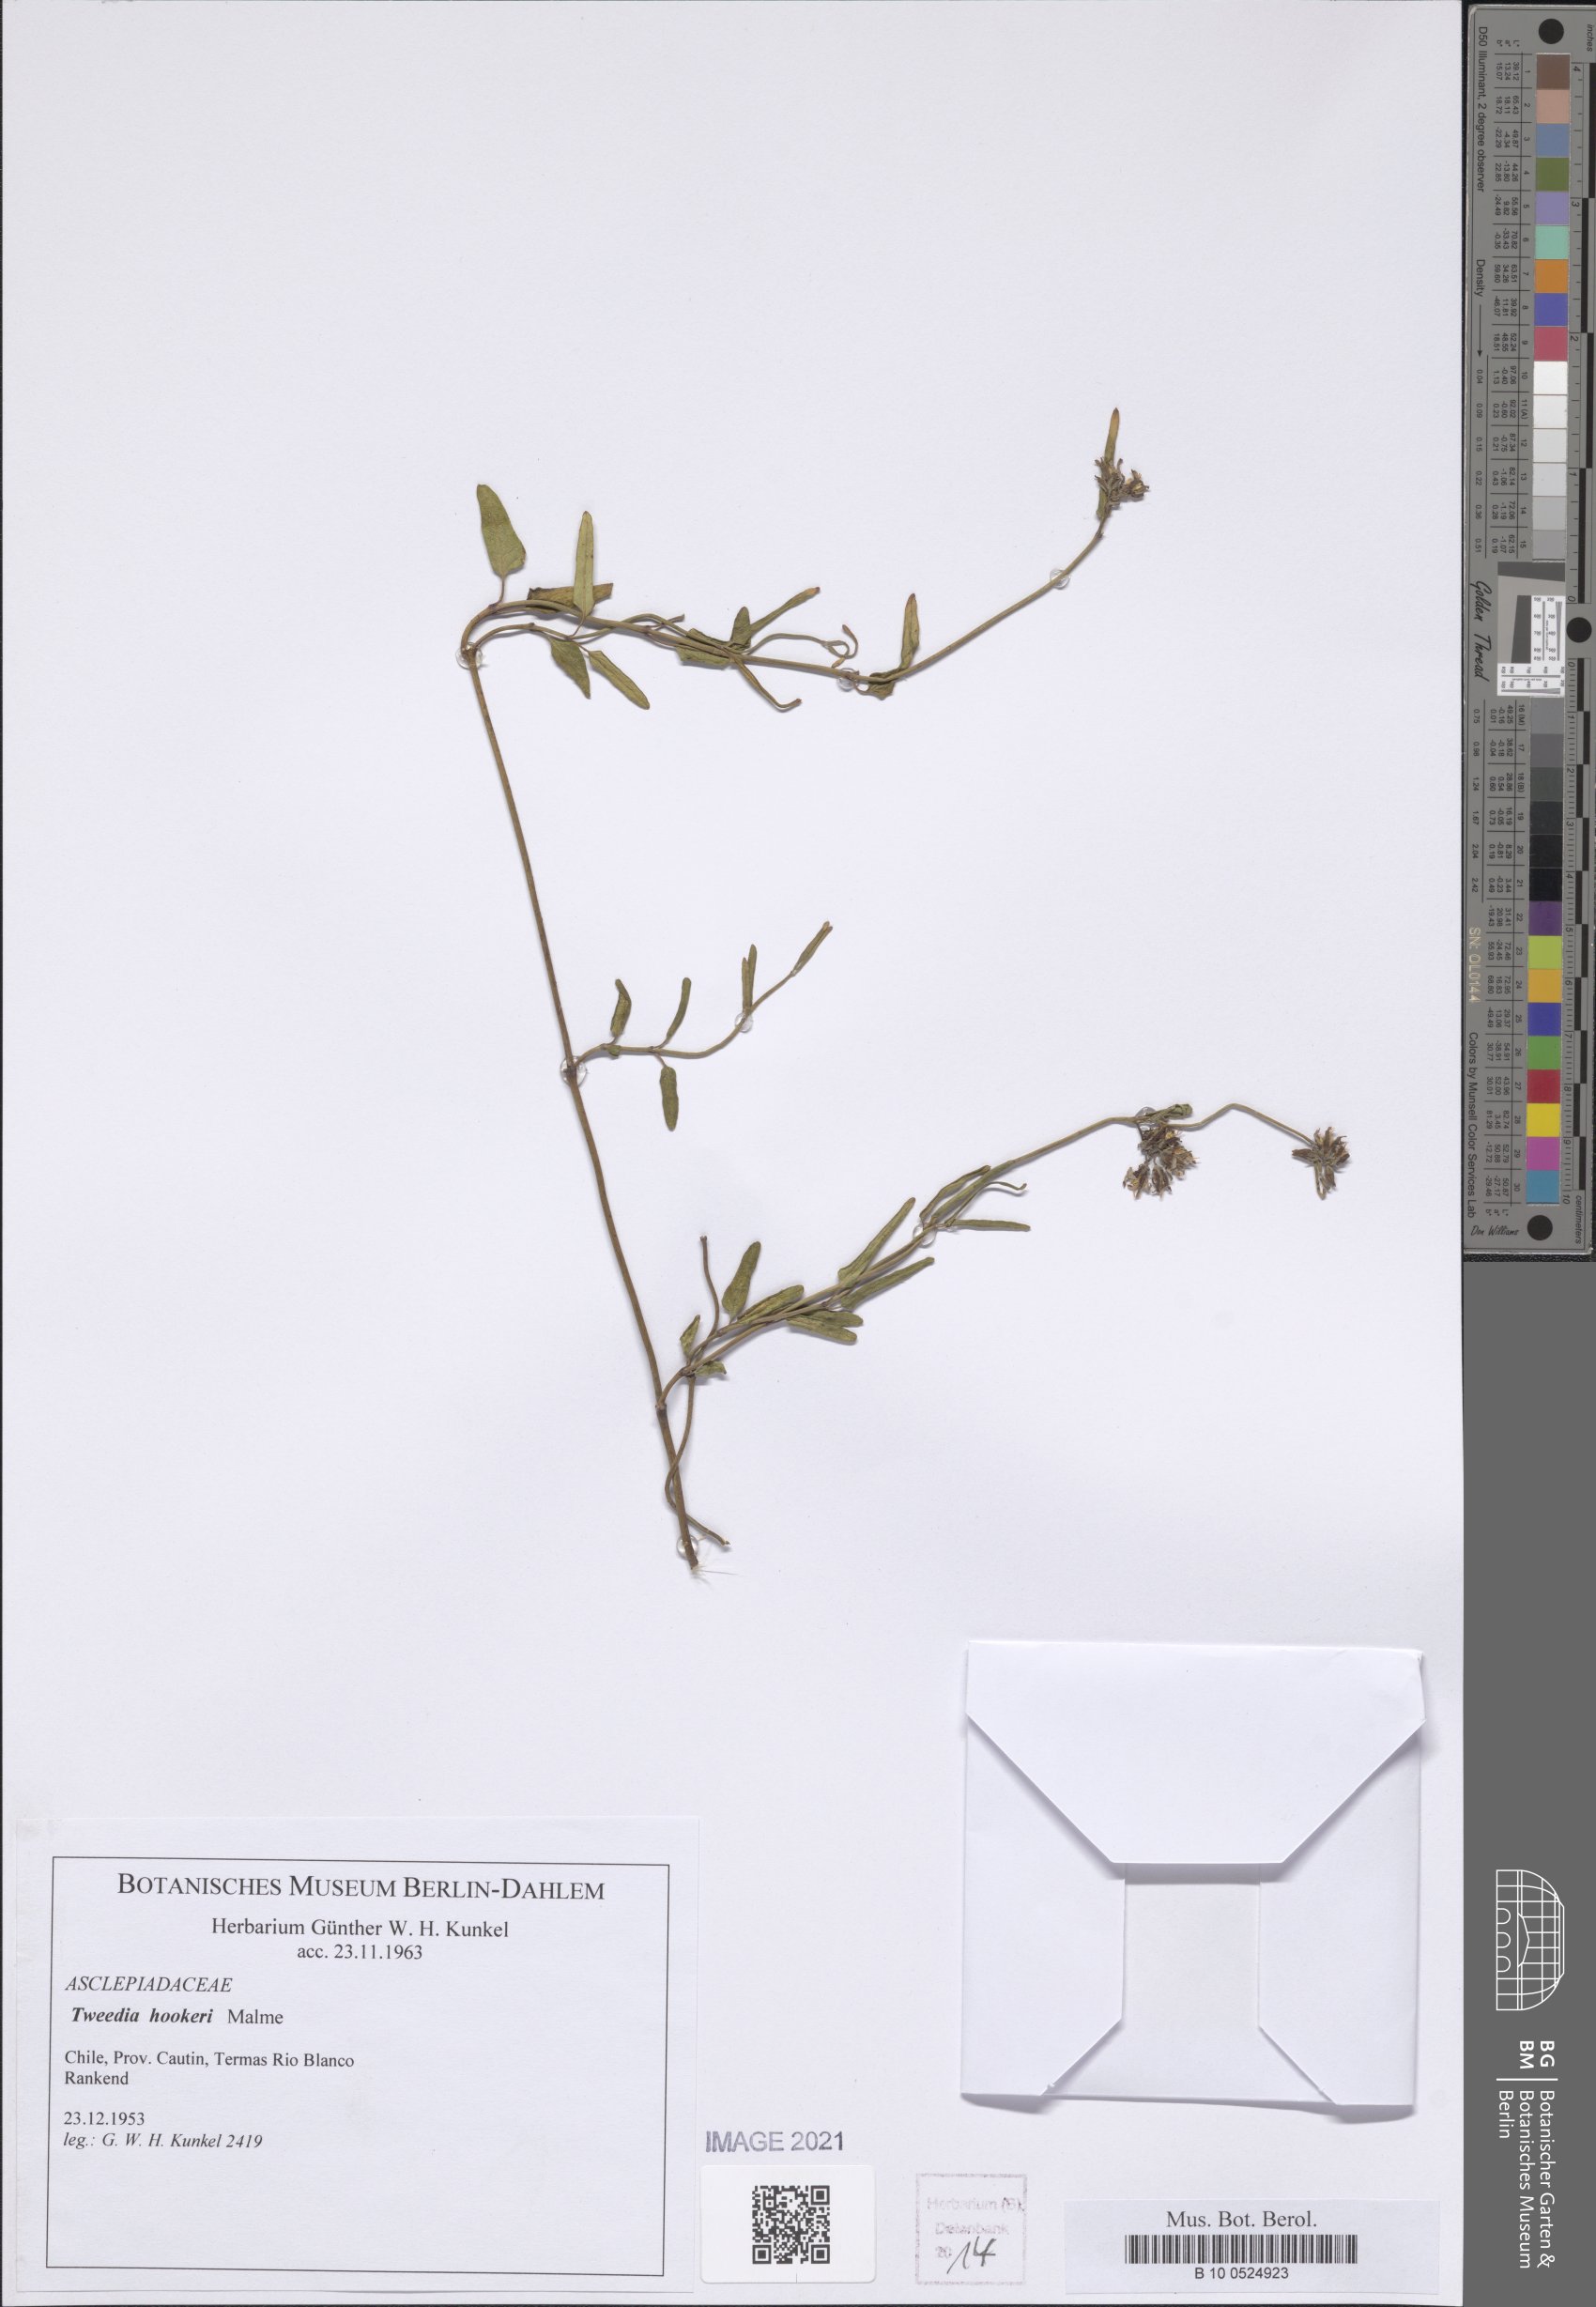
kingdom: Plantae
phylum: Tracheophyta
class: Magnoliopsida
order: Gentianales
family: Apocynaceae
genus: Tweedia
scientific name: Tweedia birostrata
